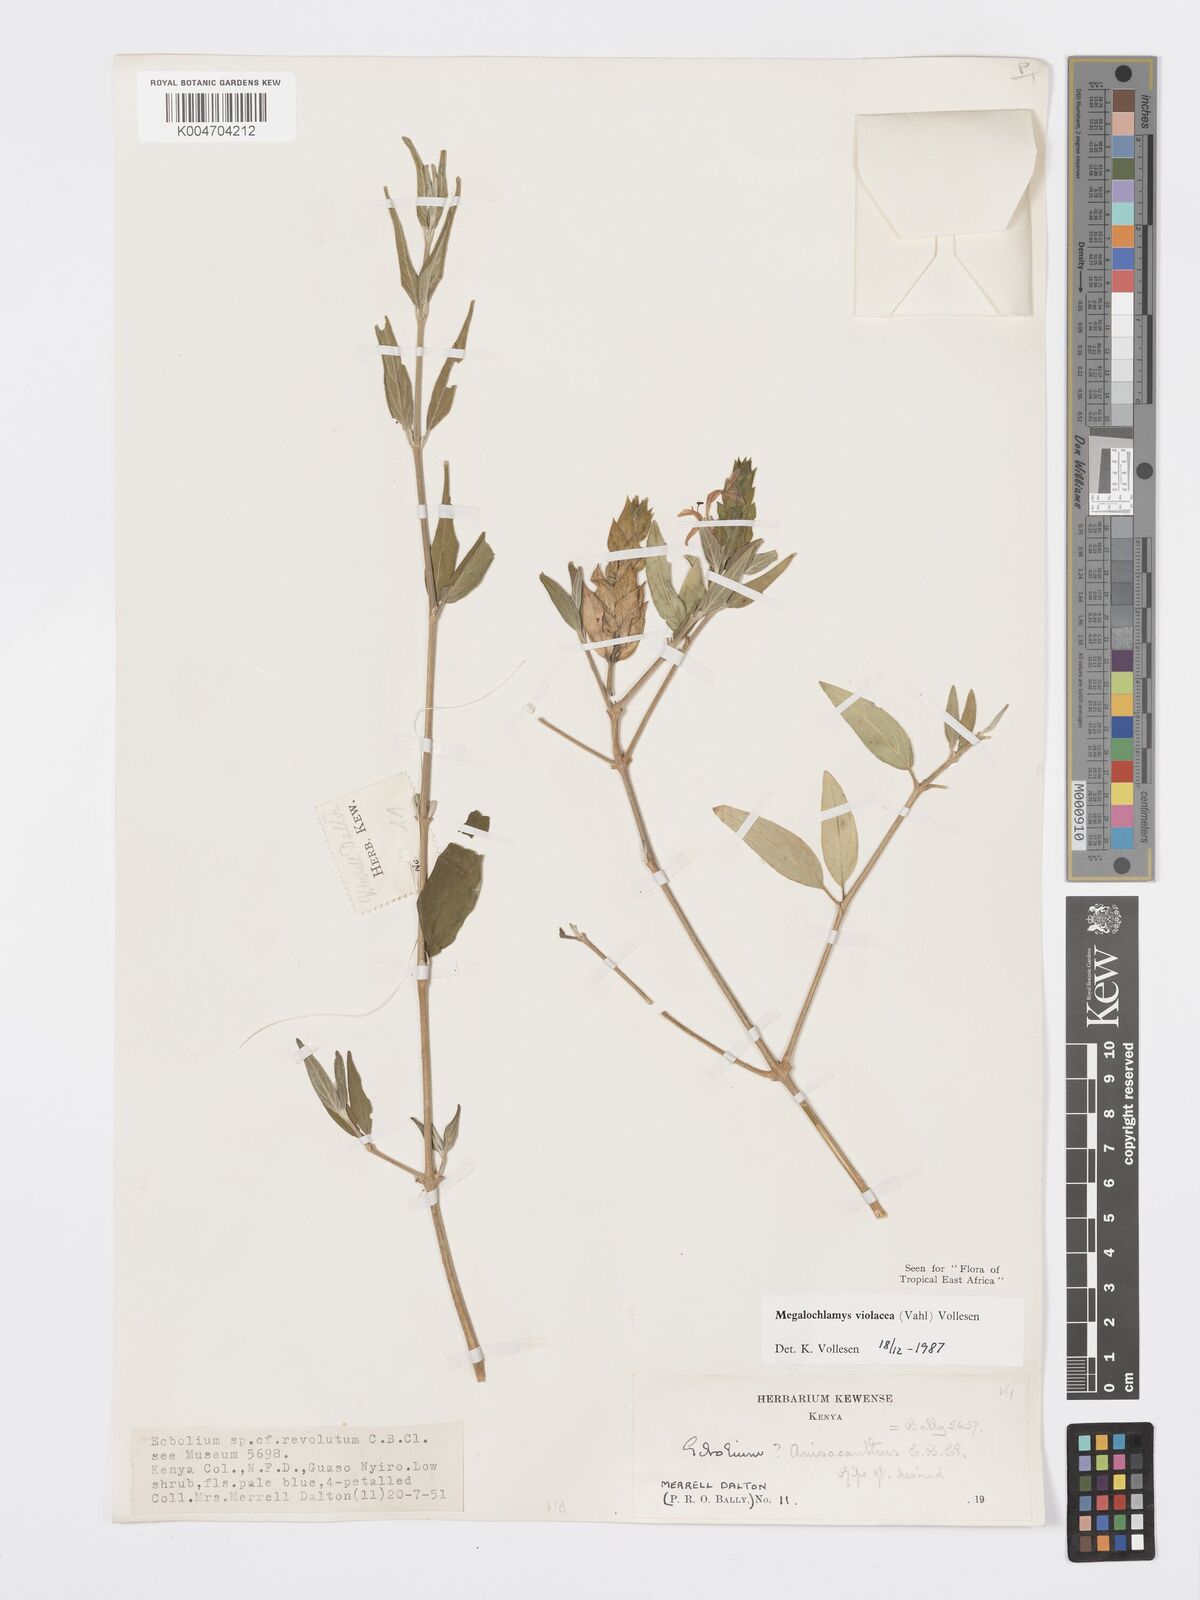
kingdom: Plantae
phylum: Tracheophyta
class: Magnoliopsida
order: Lamiales
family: Acanthaceae
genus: Megalochlamys
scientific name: Megalochlamys violacea
